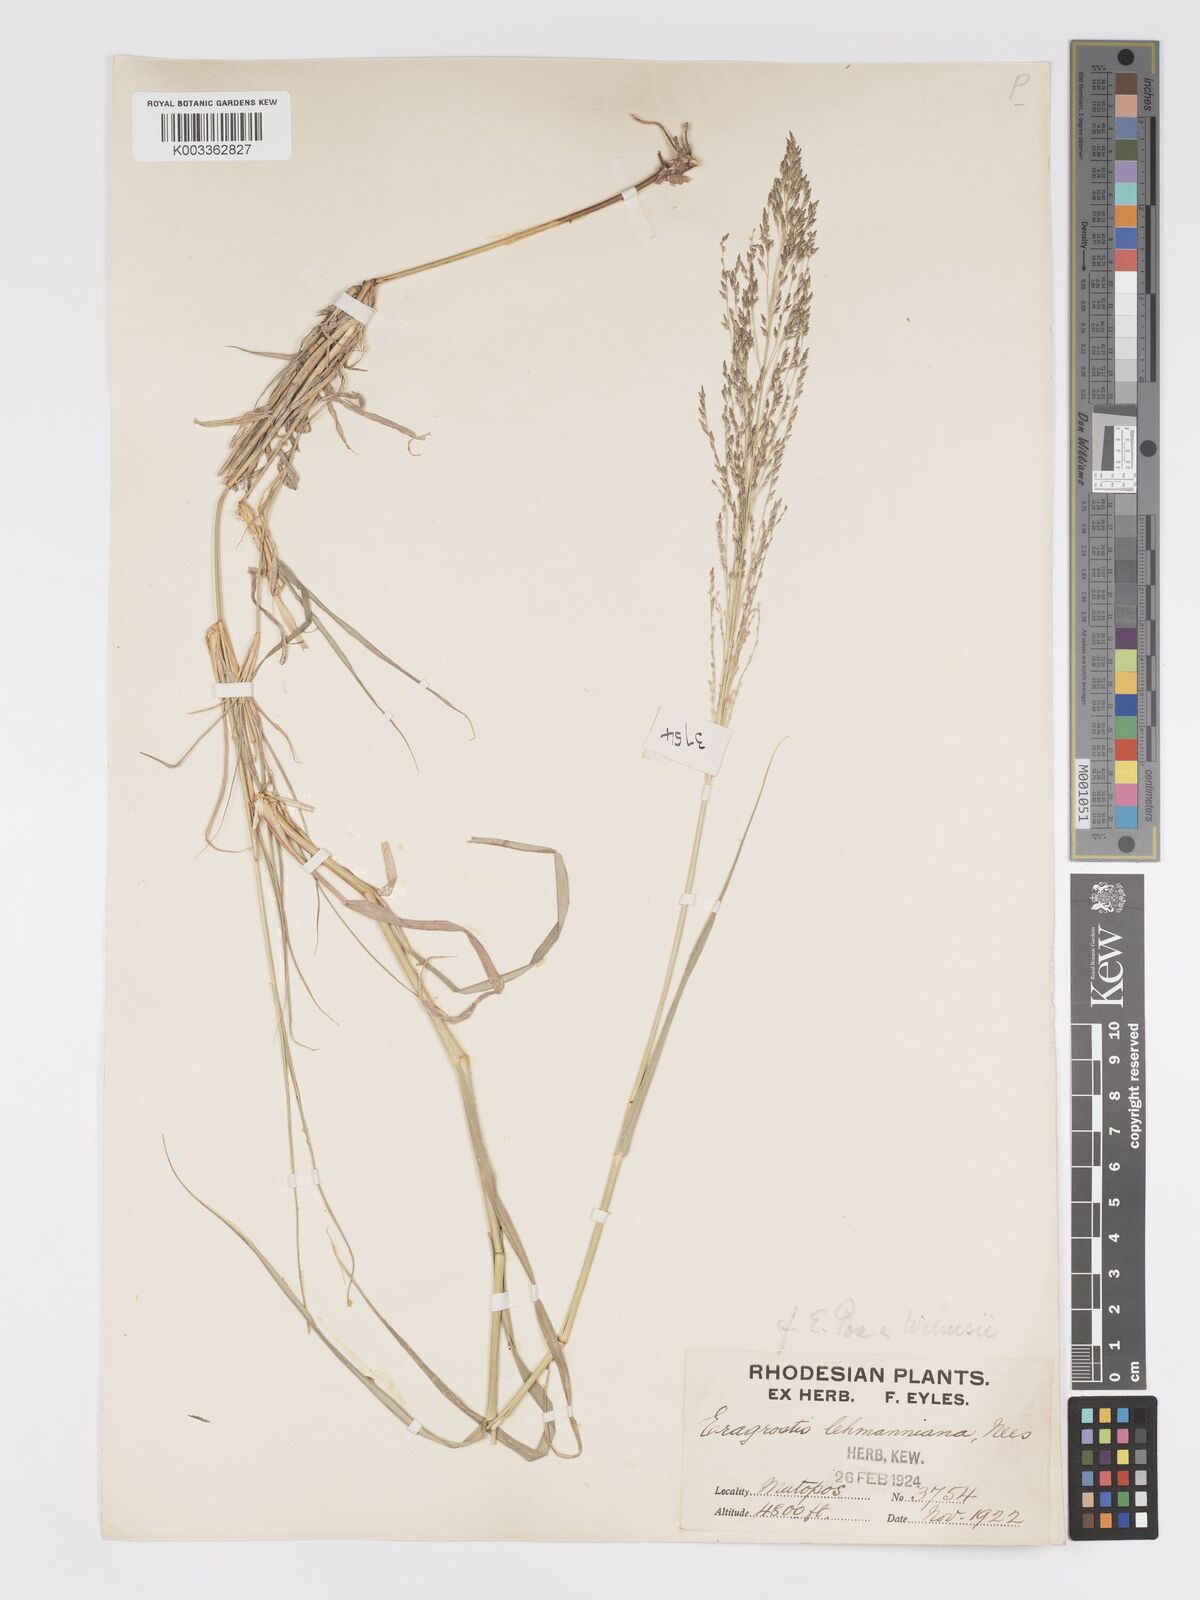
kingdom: Plantae
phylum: Tracheophyta
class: Liliopsida
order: Poales
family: Poaceae
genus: Eragrostis
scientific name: Eragrostis cylindriflora
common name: Cylinderflower lovegrass
